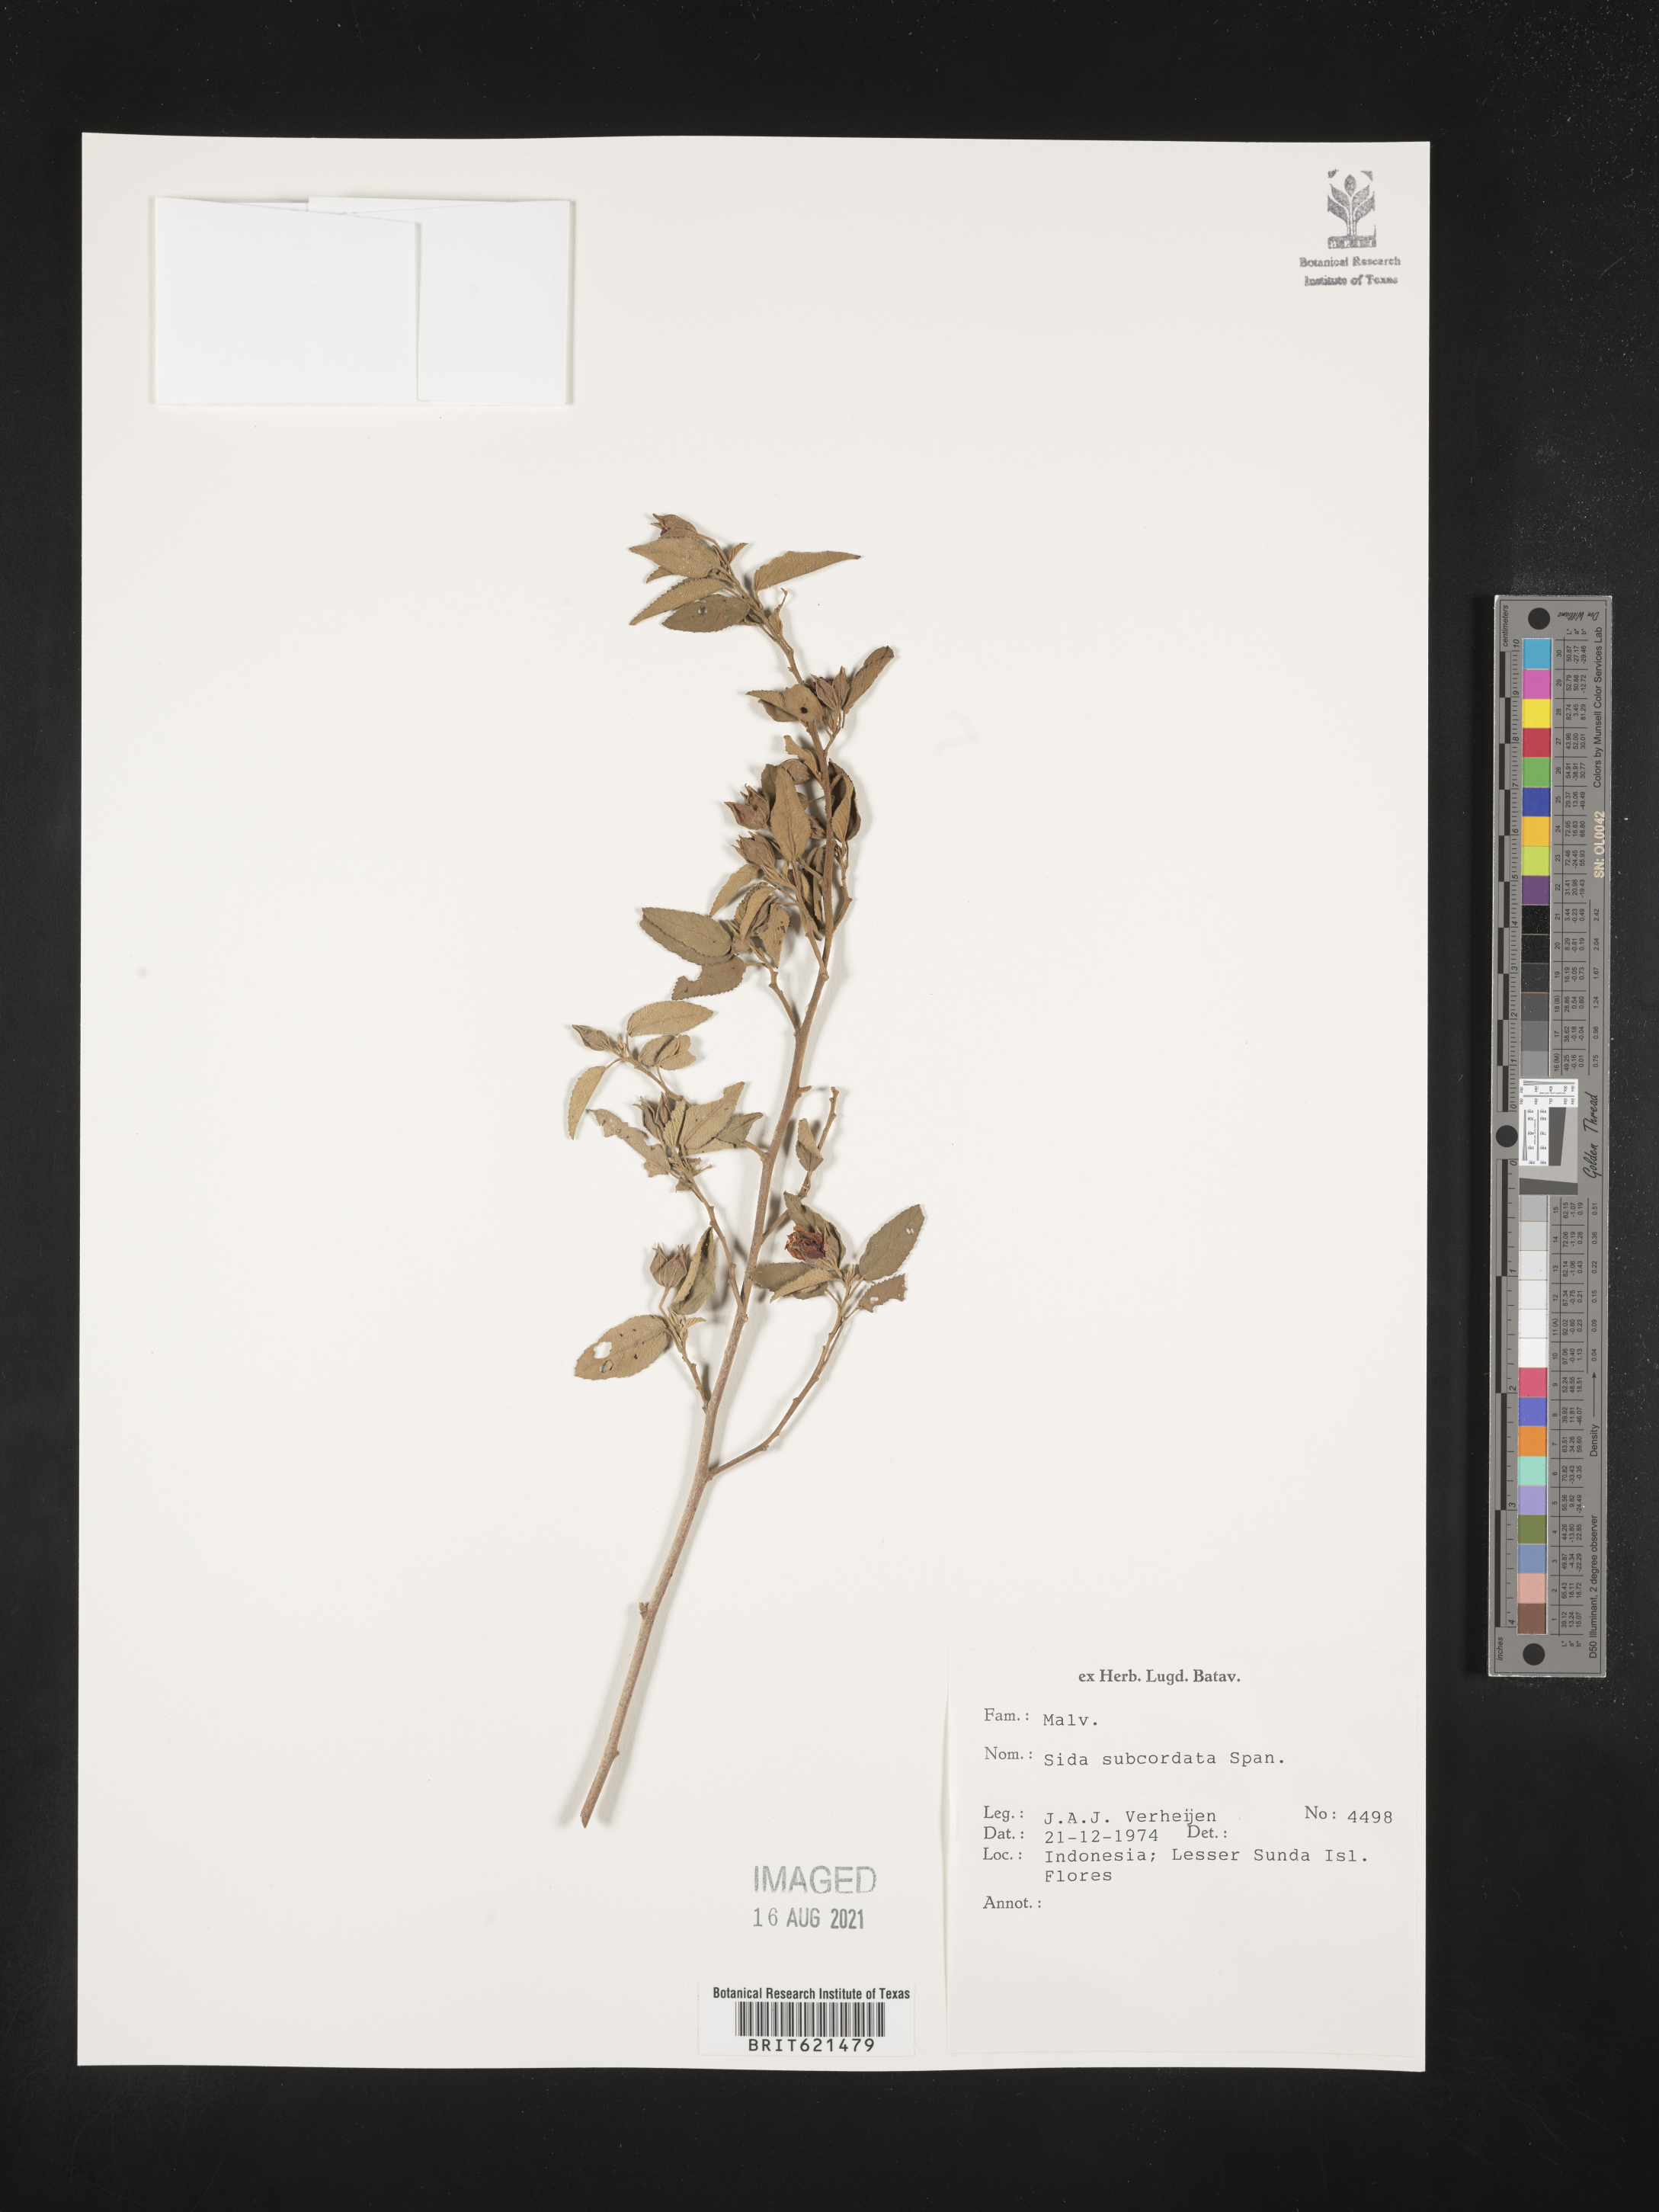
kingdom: Plantae
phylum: Tracheophyta
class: Magnoliopsida
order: Malvales
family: Malvaceae
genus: Sida
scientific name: Sida subcordata
